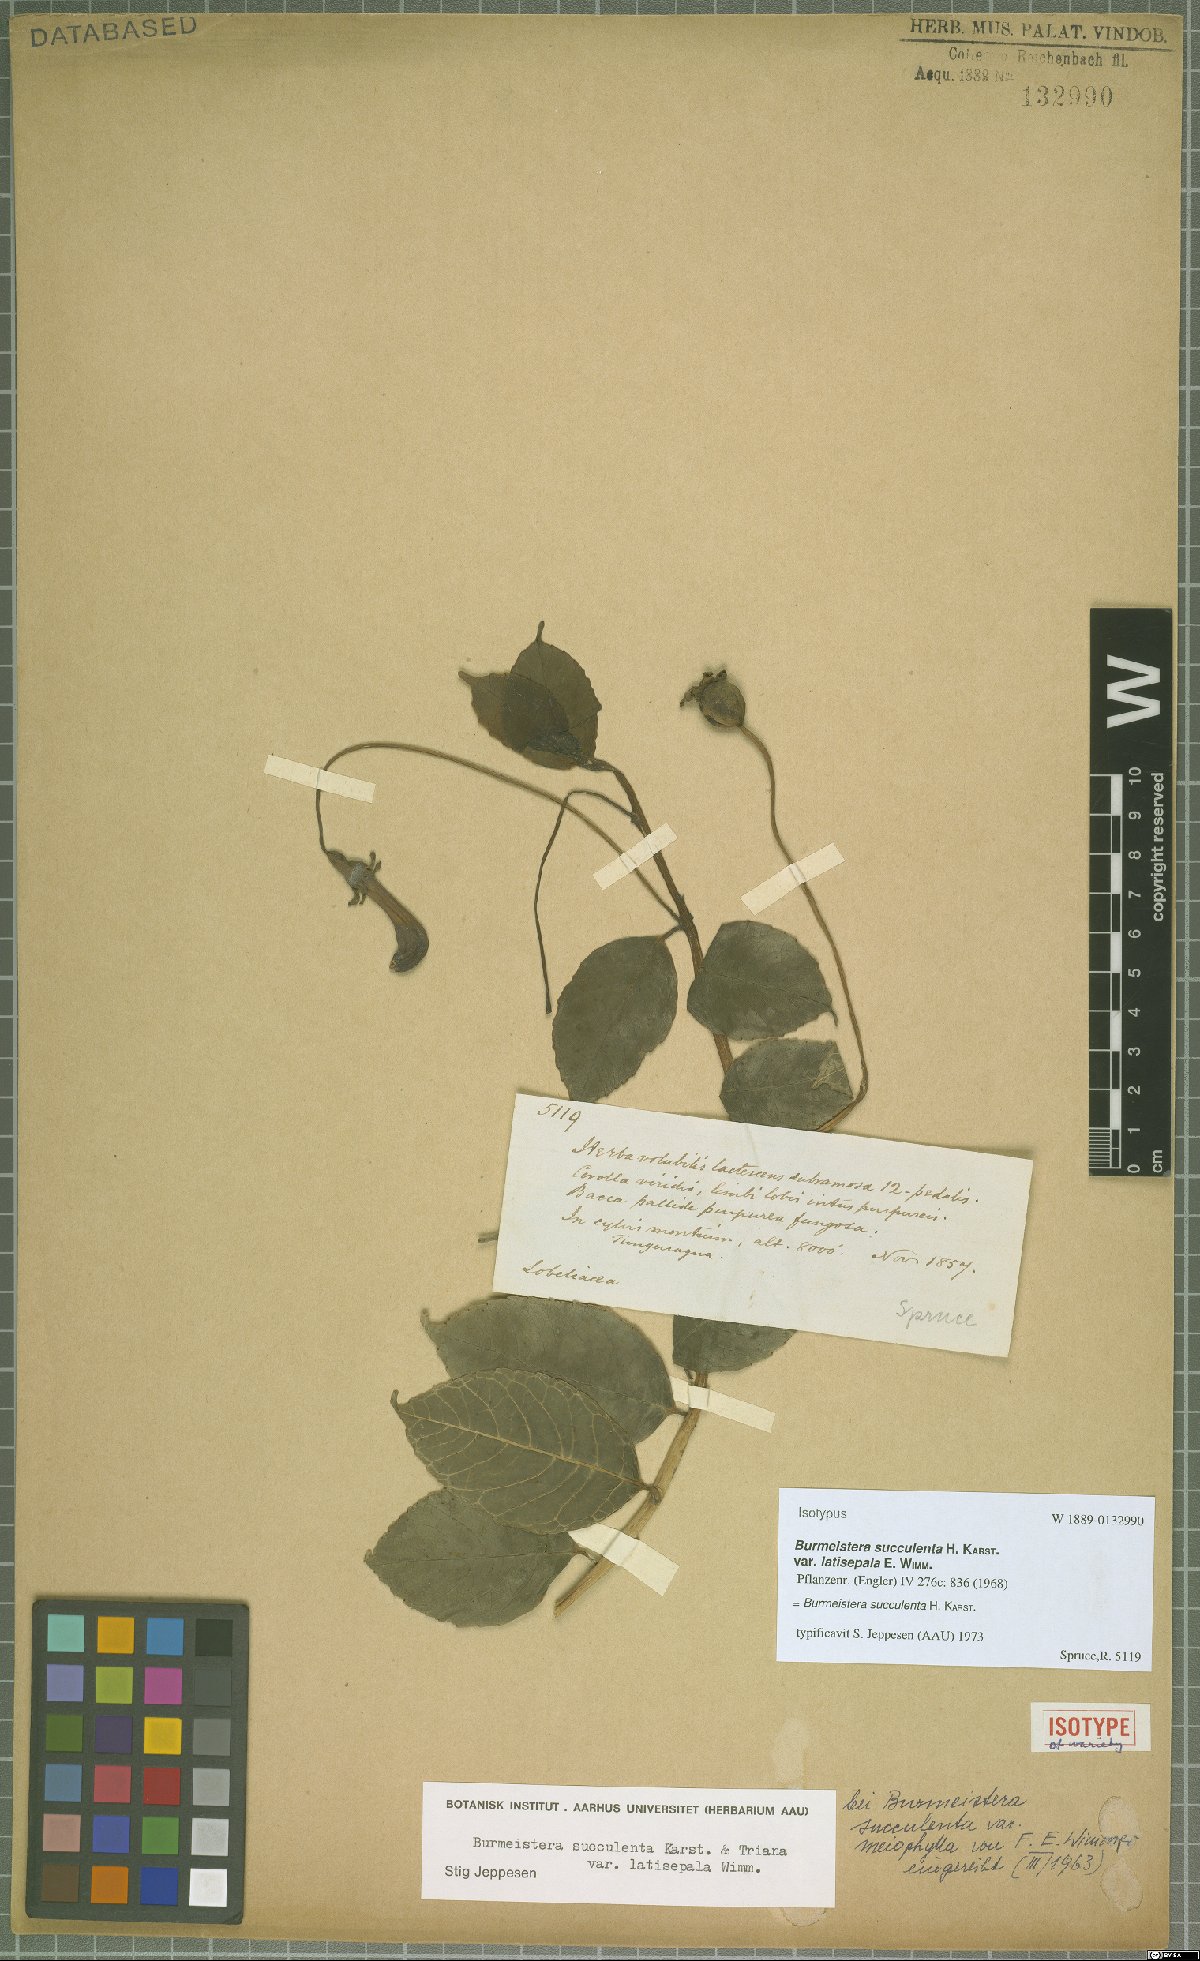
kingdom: Plantae
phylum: Tracheophyta
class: Magnoliopsida
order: Asterales
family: Campanulaceae
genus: Burmeistera
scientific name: Burmeistera succulenta
